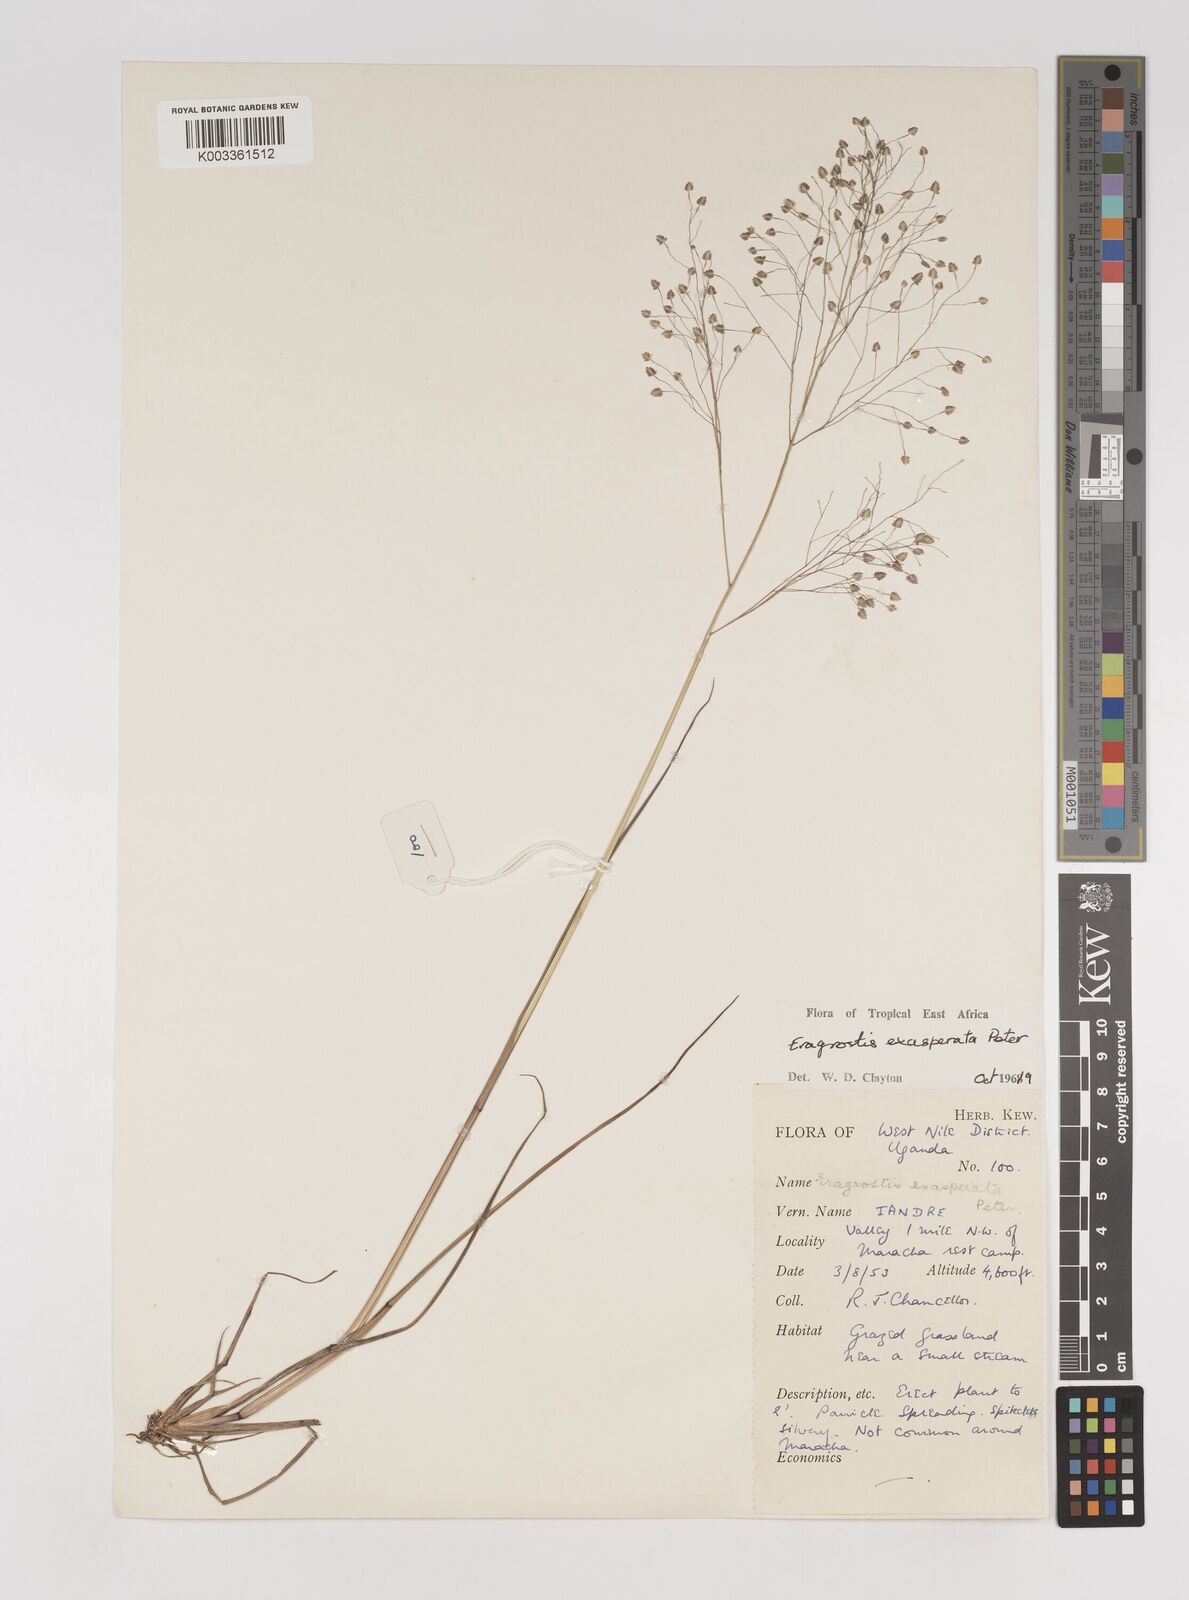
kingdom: Plantae
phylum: Tracheophyta
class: Liliopsida
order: Poales
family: Poaceae
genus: Eragrostis
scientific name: Eragrostis exasperata
